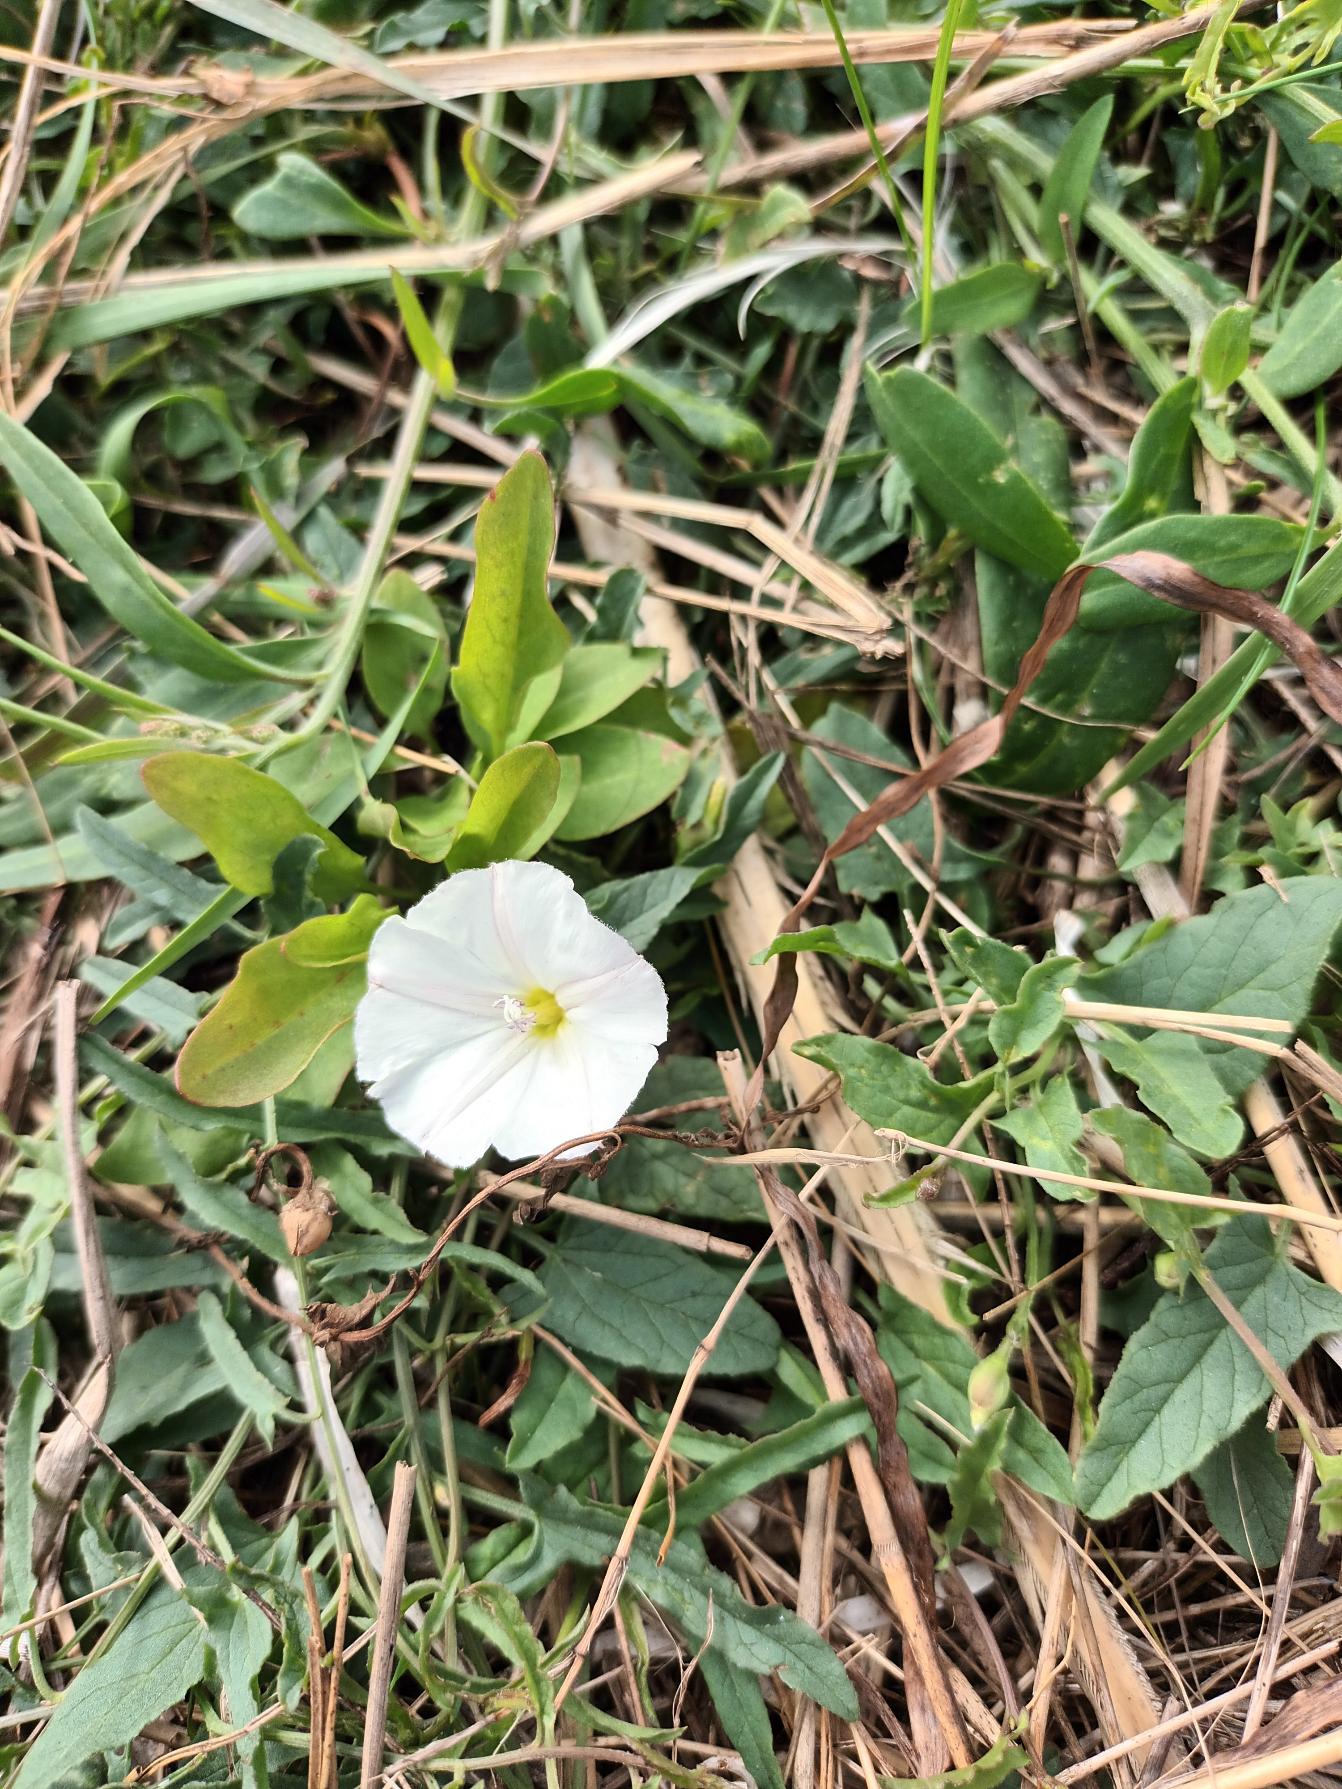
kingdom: Plantae
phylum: Tracheophyta
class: Magnoliopsida
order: Solanales
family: Convolvulaceae
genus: Convolvulus
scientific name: Convolvulus arvensis
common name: Ager-snerle
